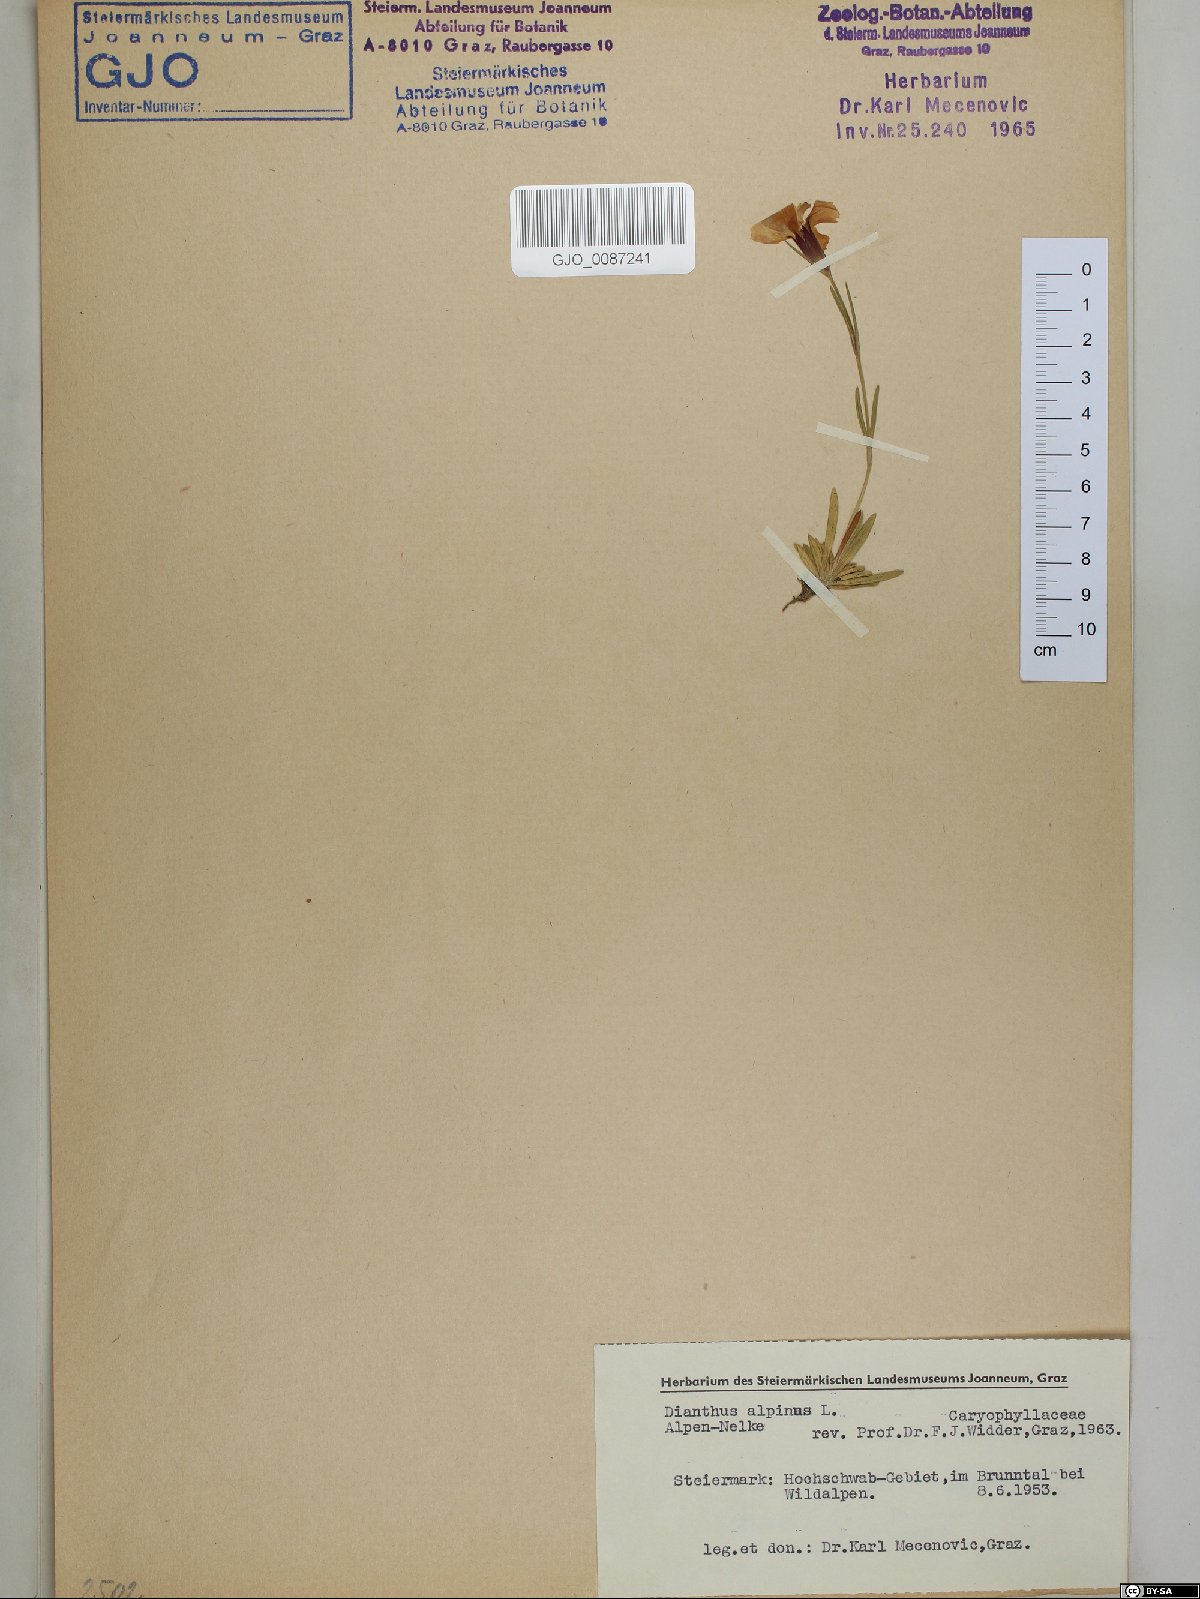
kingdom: Plantae
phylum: Tracheophyta
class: Magnoliopsida
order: Caryophyllales
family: Caryophyllaceae
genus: Dianthus
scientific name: Dianthus alpinus
